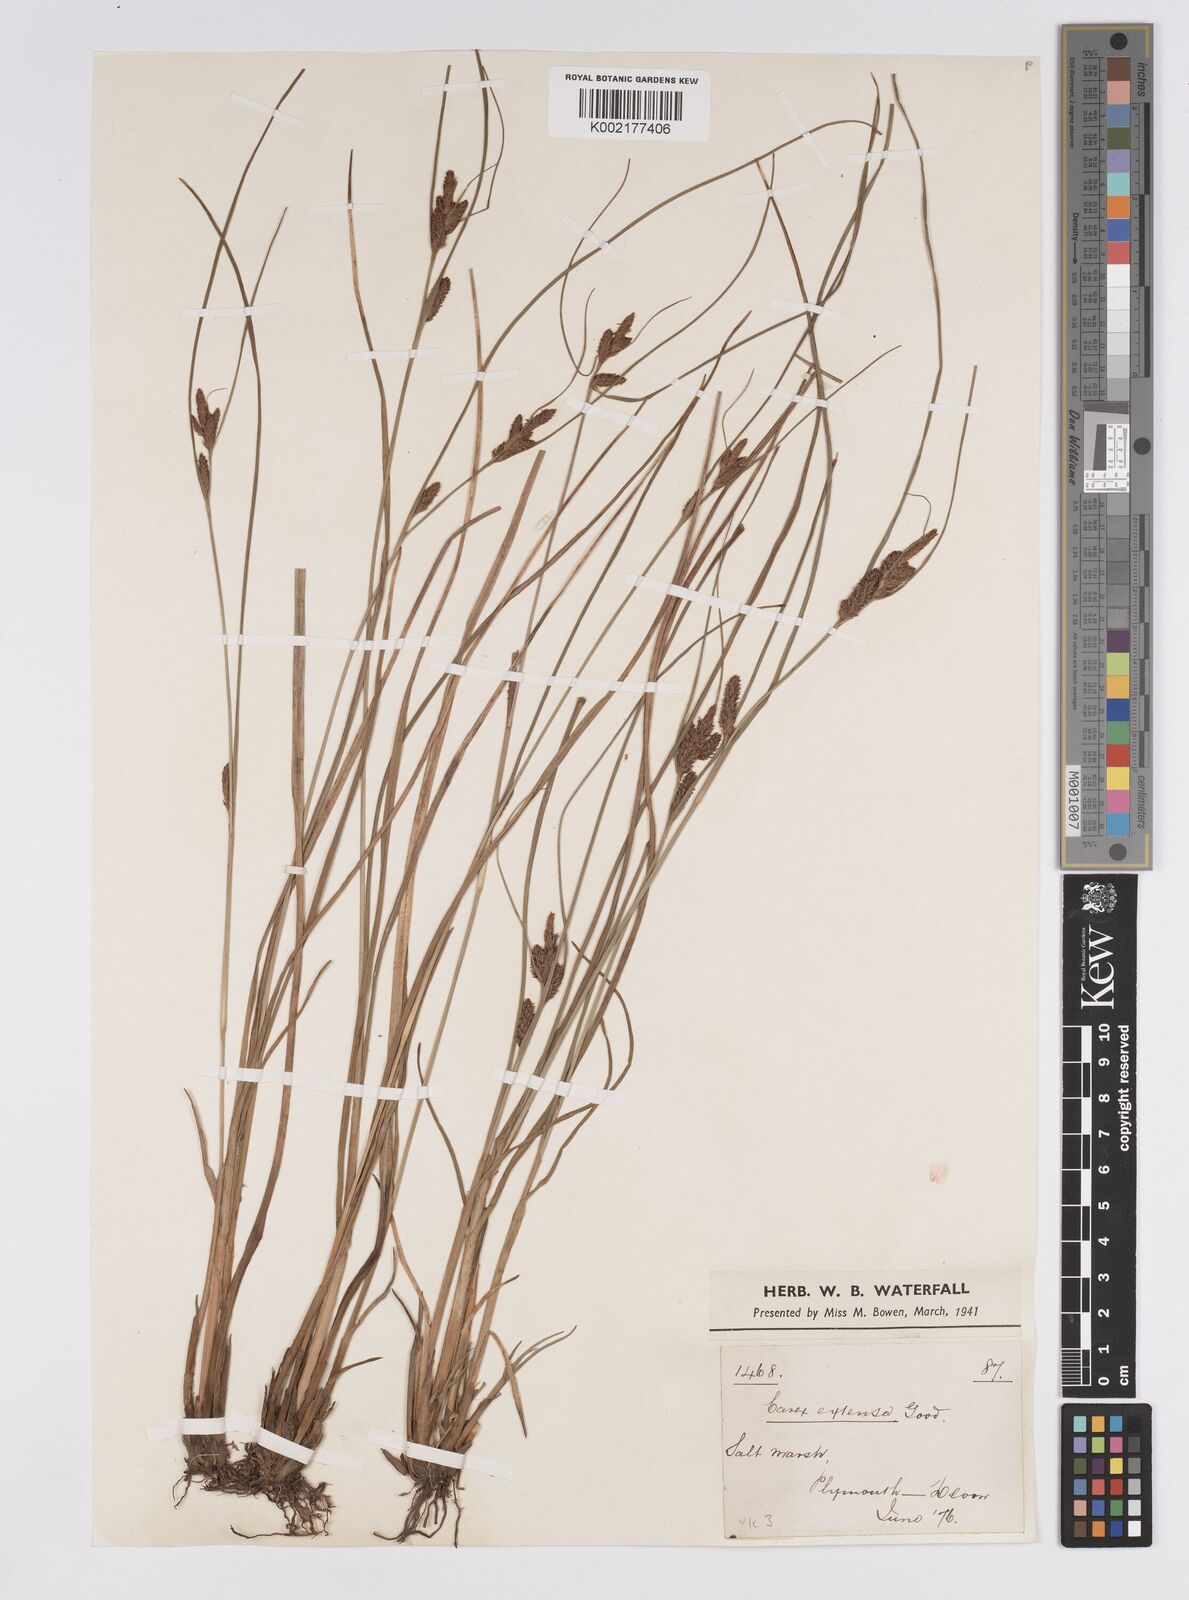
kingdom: Plantae
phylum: Tracheophyta
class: Liliopsida
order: Poales
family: Cyperaceae
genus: Carex
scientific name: Carex extensa
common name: Long-bracted sedge
